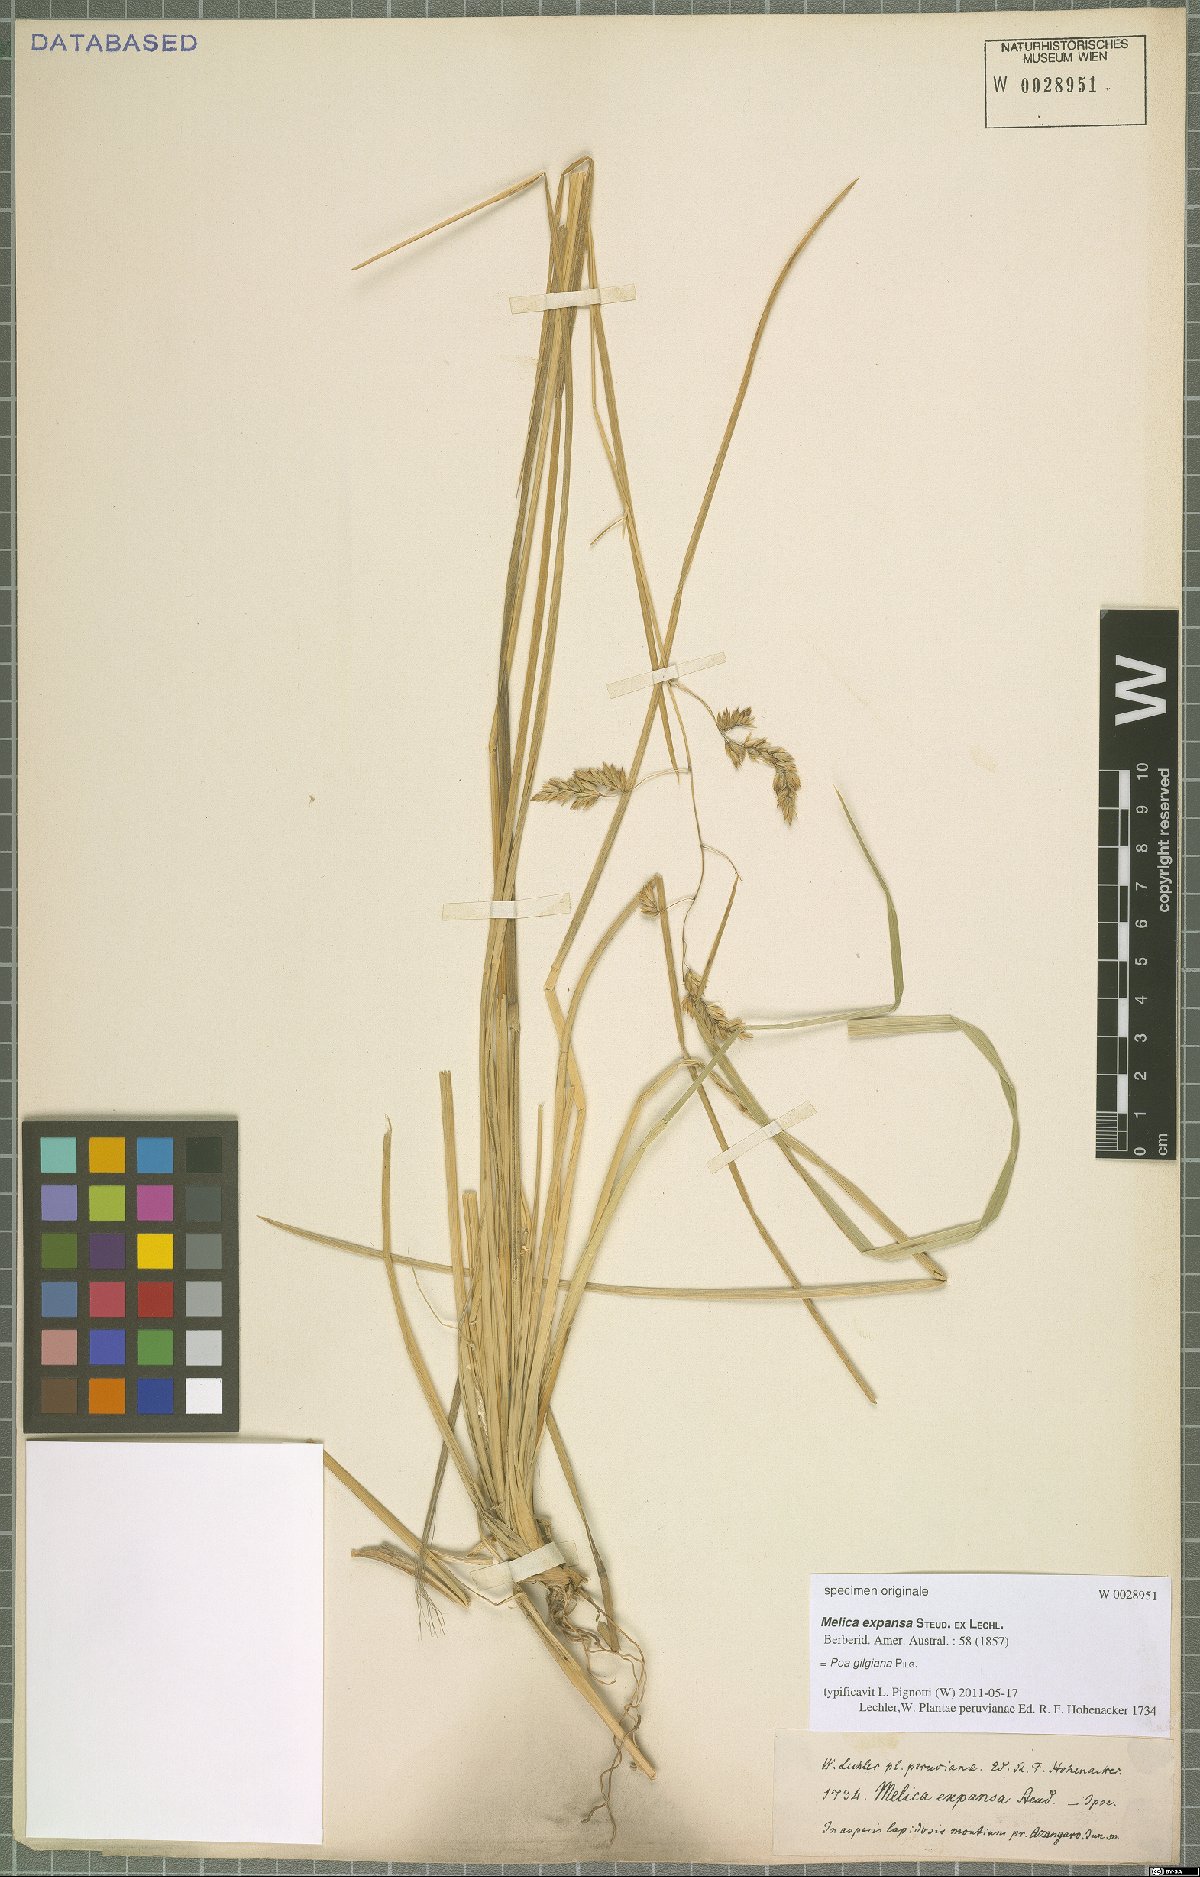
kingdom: Plantae
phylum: Tracheophyta
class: Liliopsida
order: Poales
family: Poaceae
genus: Poa
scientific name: Poa gilgiana
